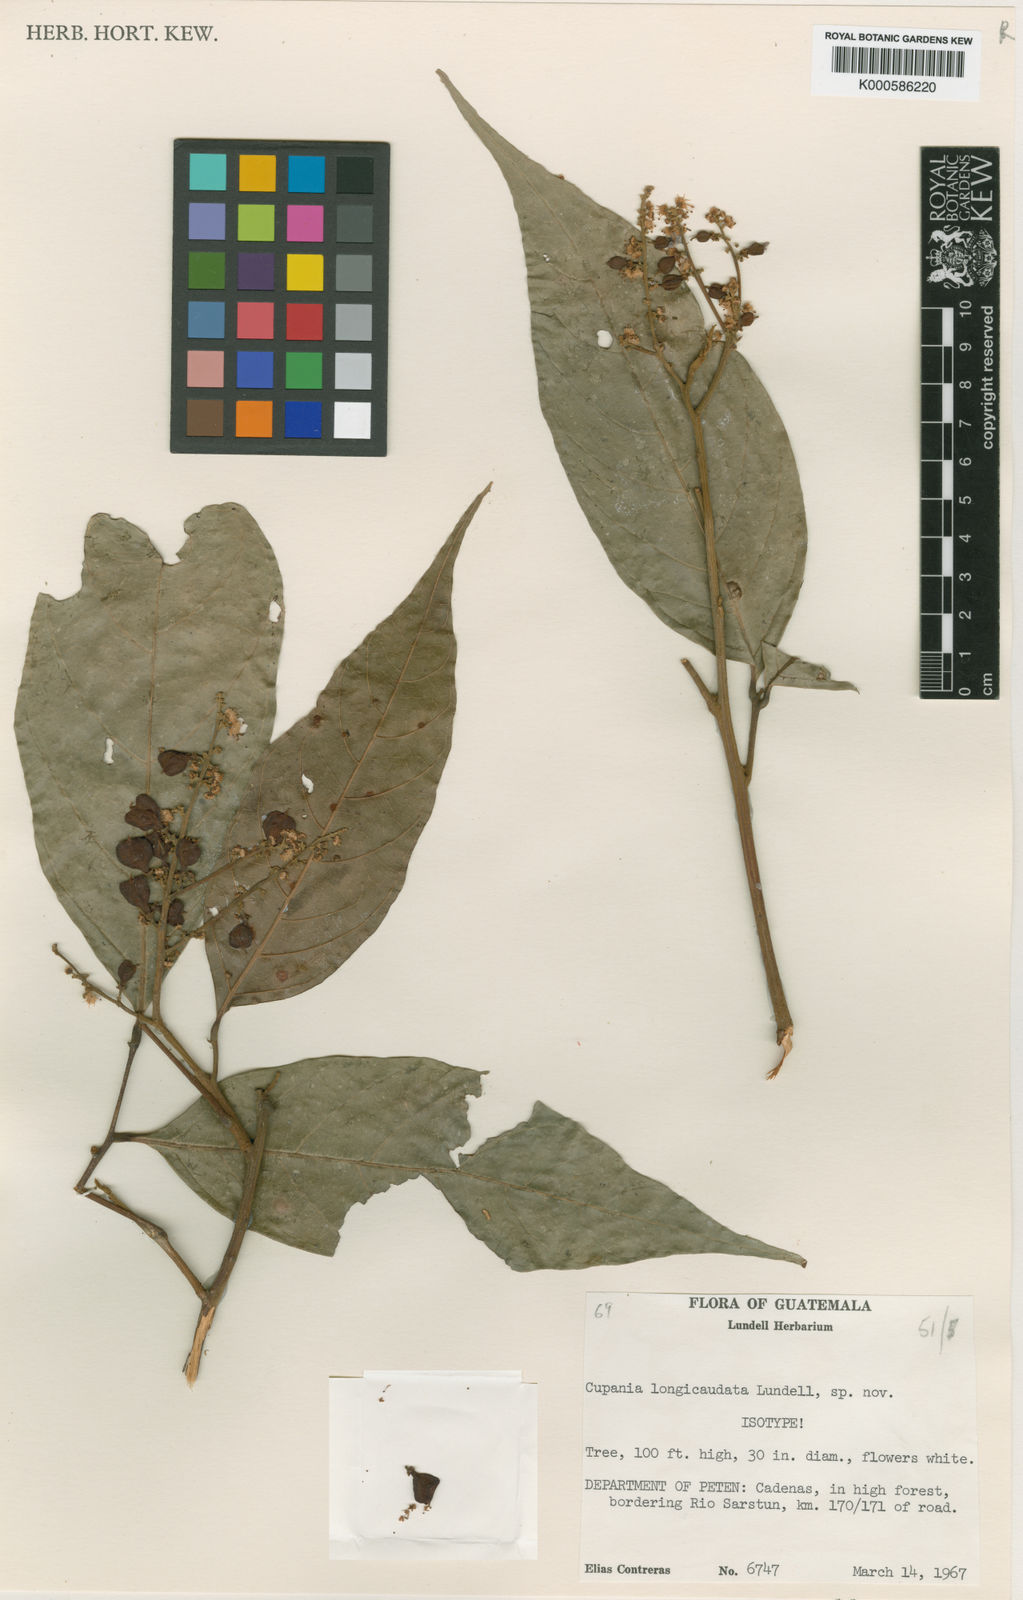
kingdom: Plantae
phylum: Tracheophyta
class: Magnoliopsida
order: Sapindales
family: Sapindaceae
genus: Cupania
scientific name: Cupania longicaudata
